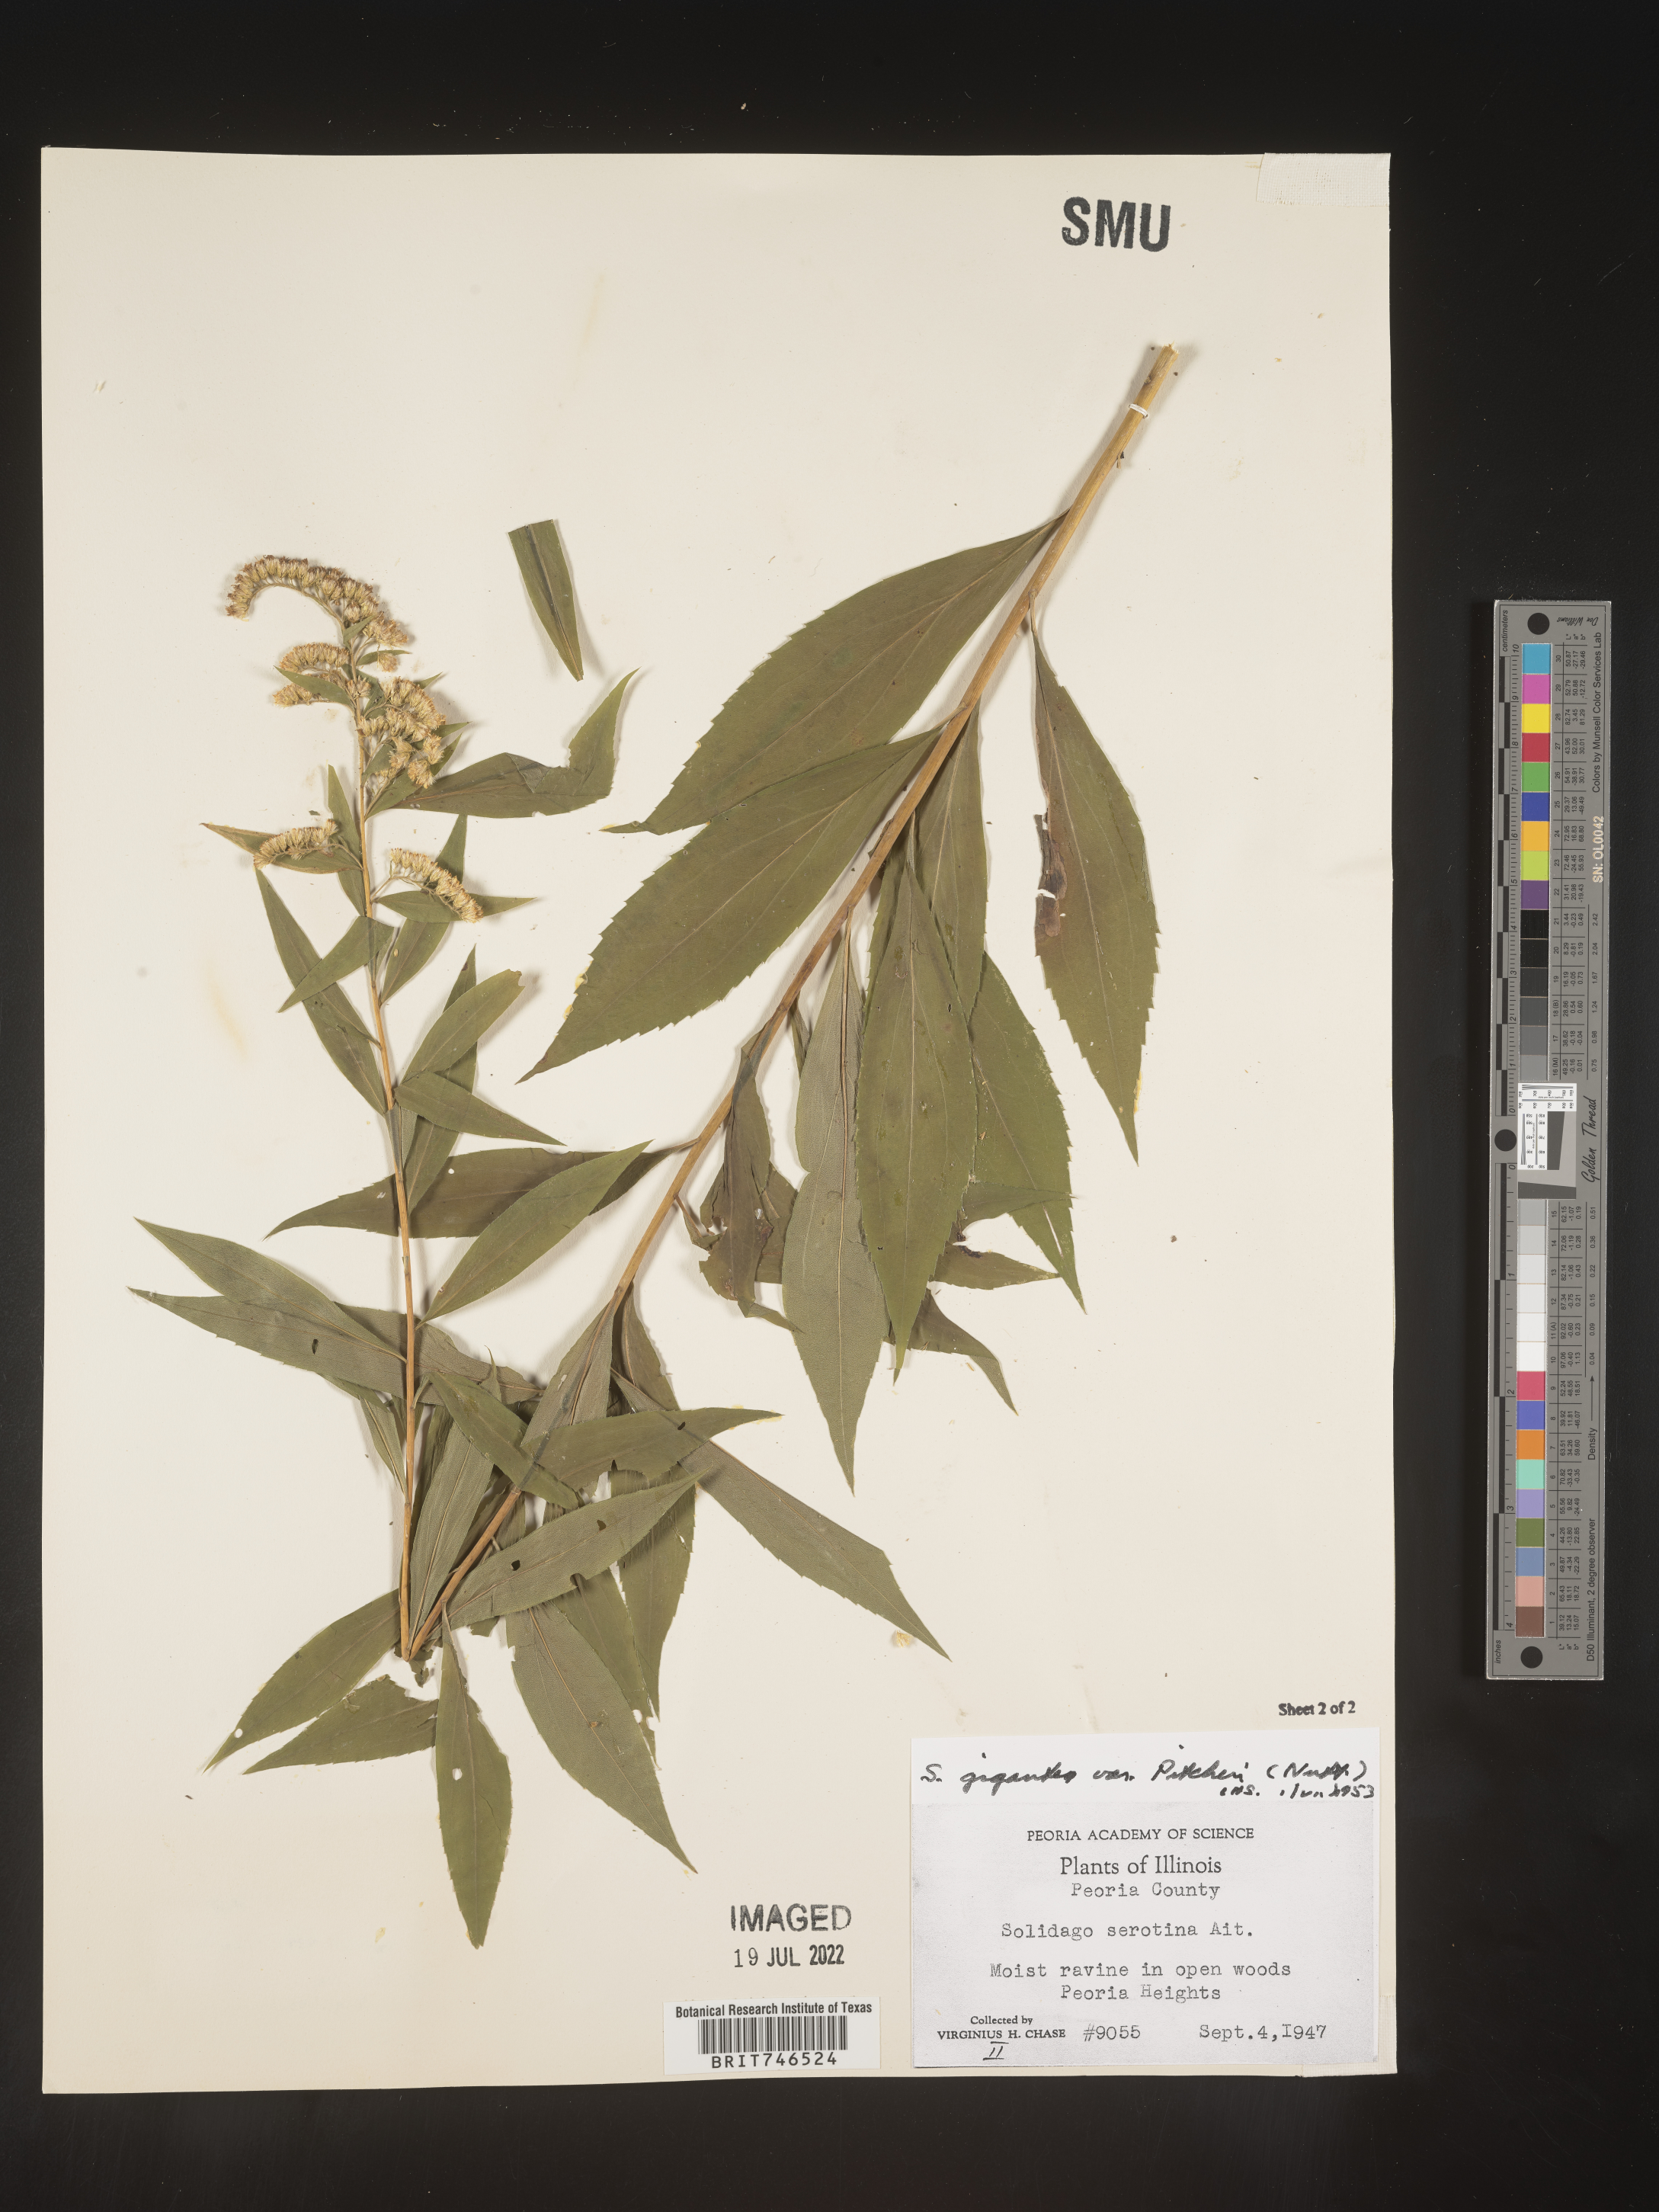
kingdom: Plantae
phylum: Tracheophyta
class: Magnoliopsida
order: Asterales
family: Asteraceae
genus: Solidago
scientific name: Solidago gigantea
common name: Giant goldenrod
